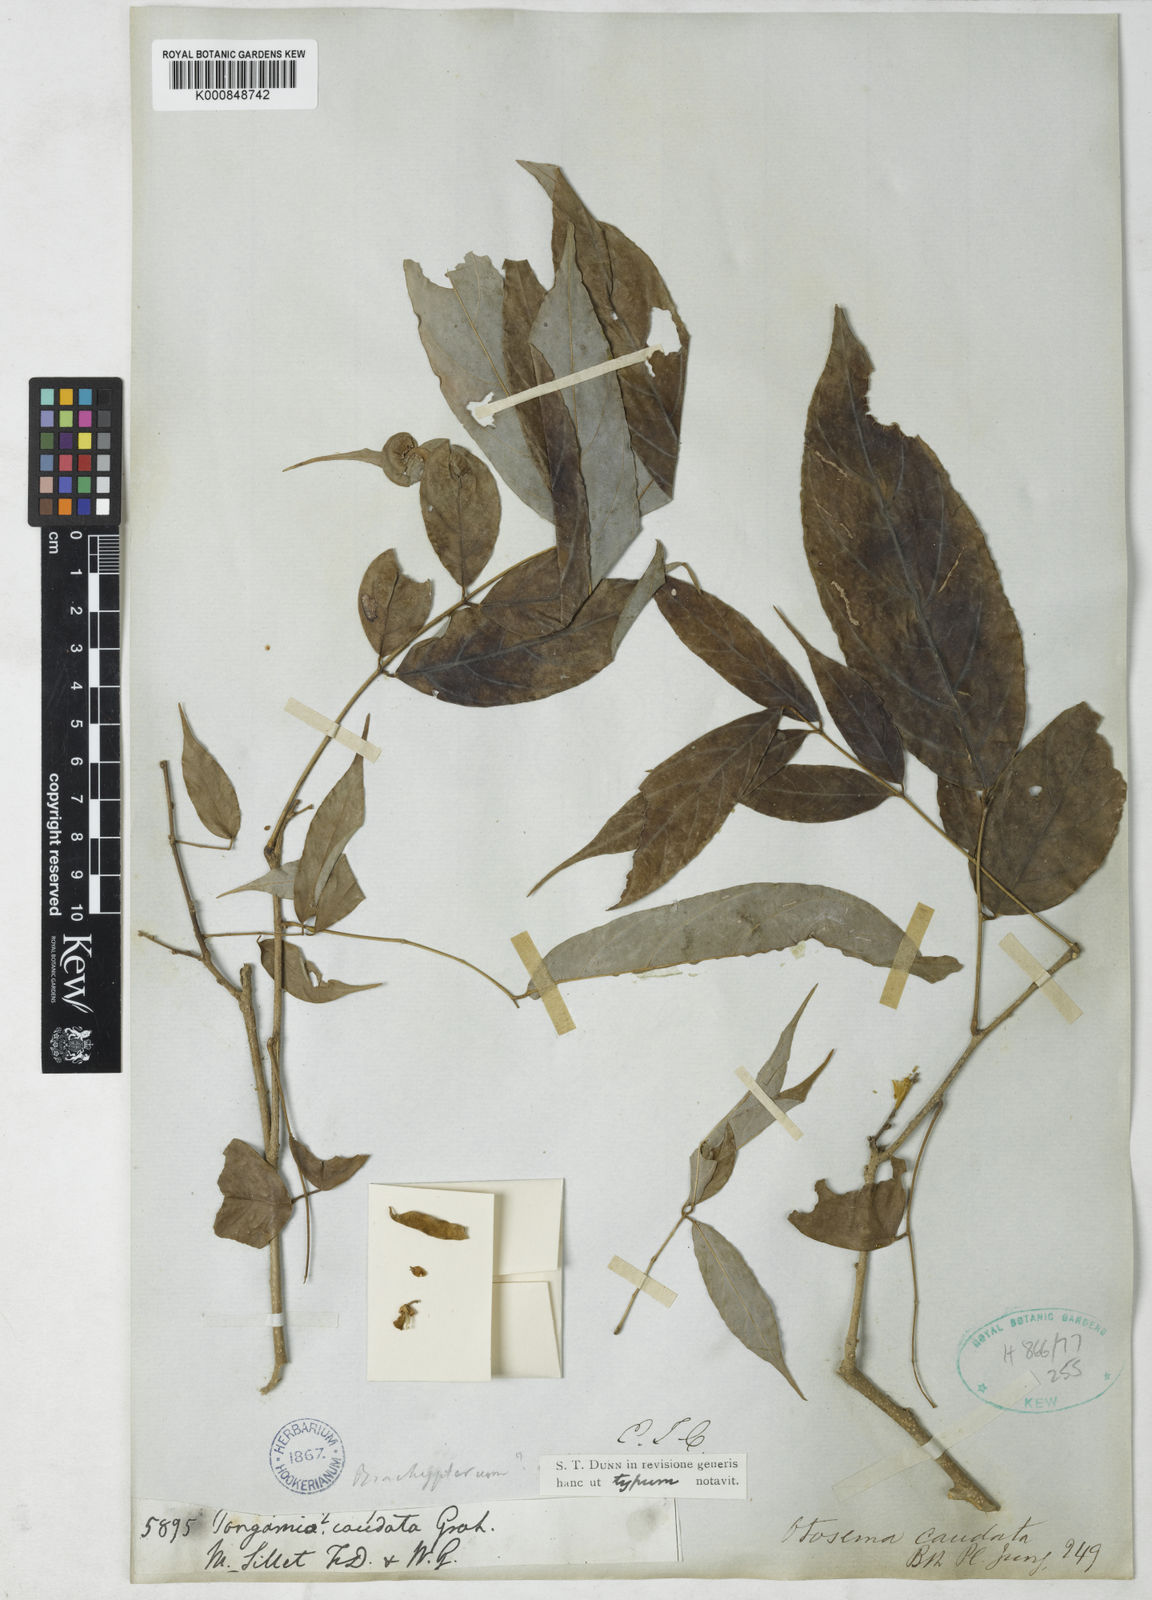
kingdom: Plantae
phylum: Tracheophyta
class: Magnoliopsida
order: Fabales
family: Fabaceae
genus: Millettia
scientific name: Millettia caudata
